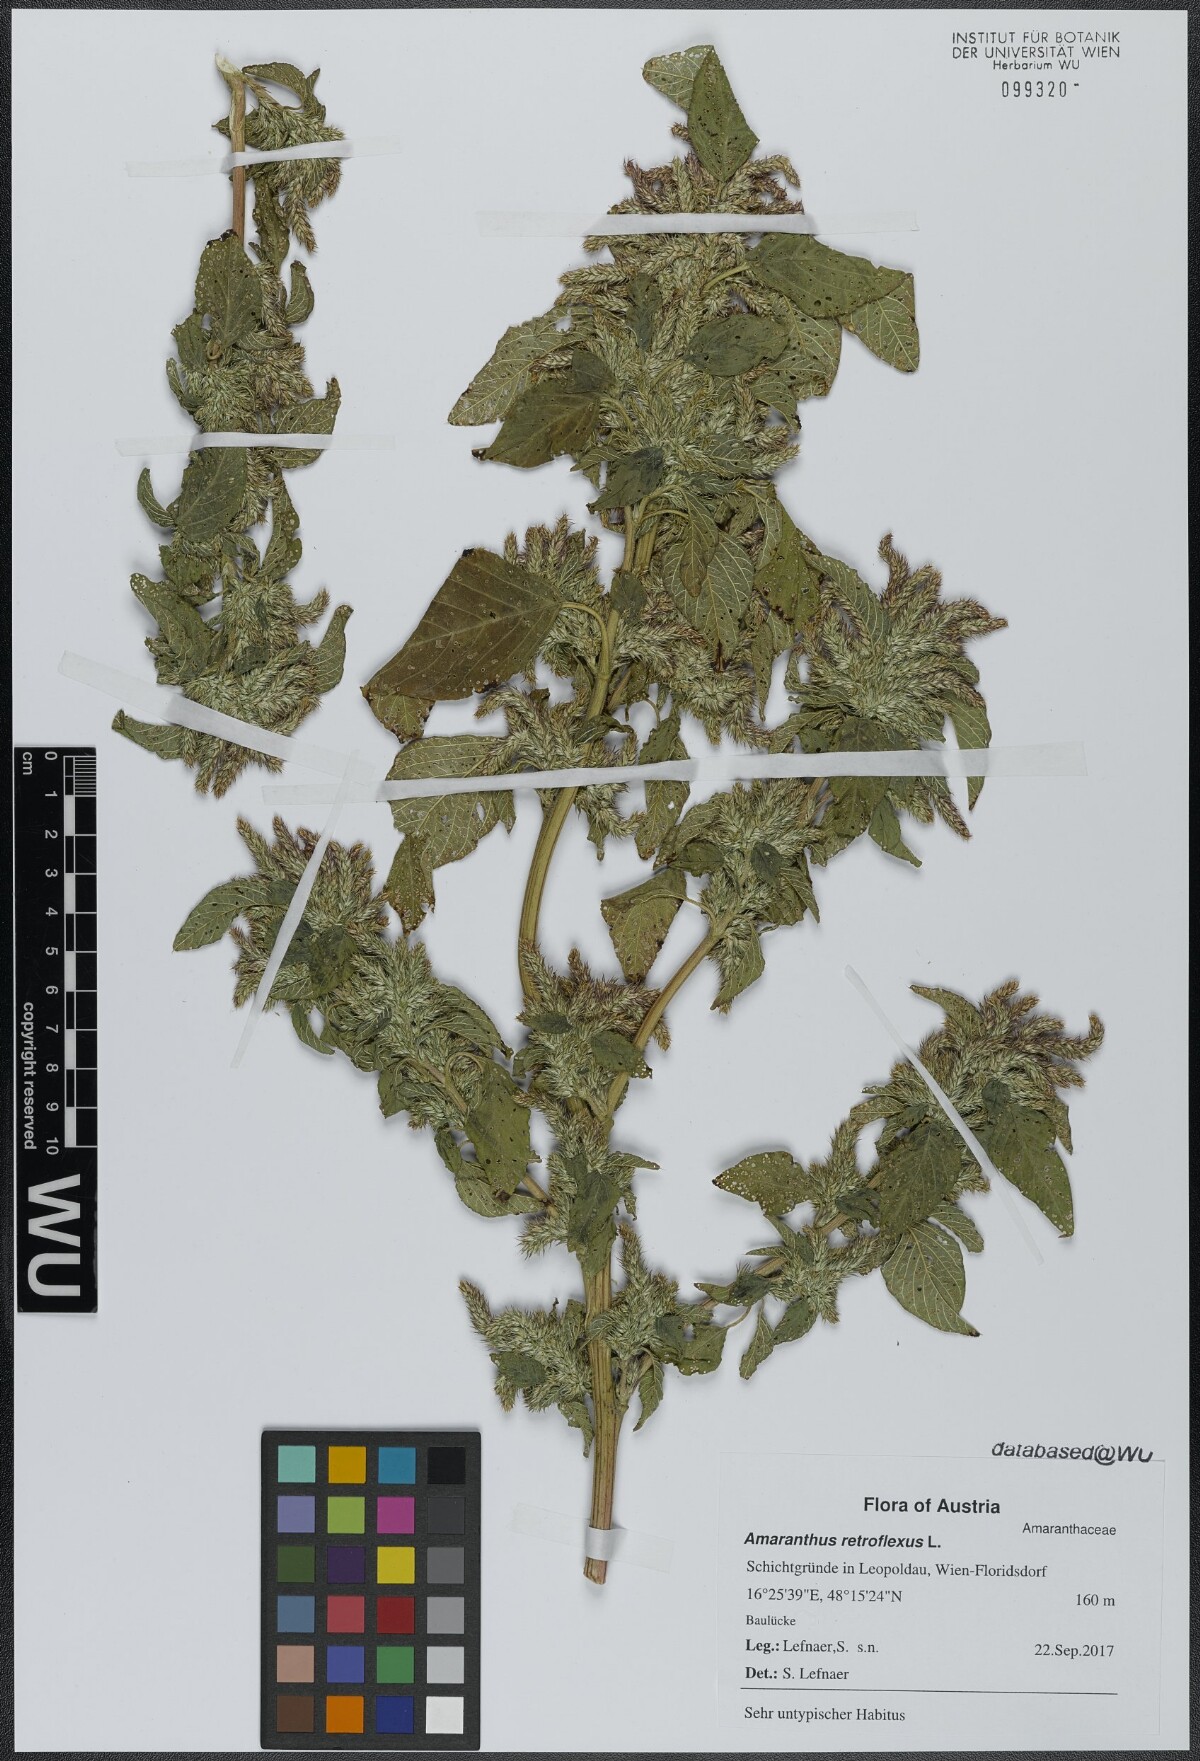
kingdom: Plantae
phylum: Tracheophyta
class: Magnoliopsida
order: Caryophyllales
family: Amaranthaceae
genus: Amaranthus
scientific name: Amaranthus retroflexus
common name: Redroot amaranth
